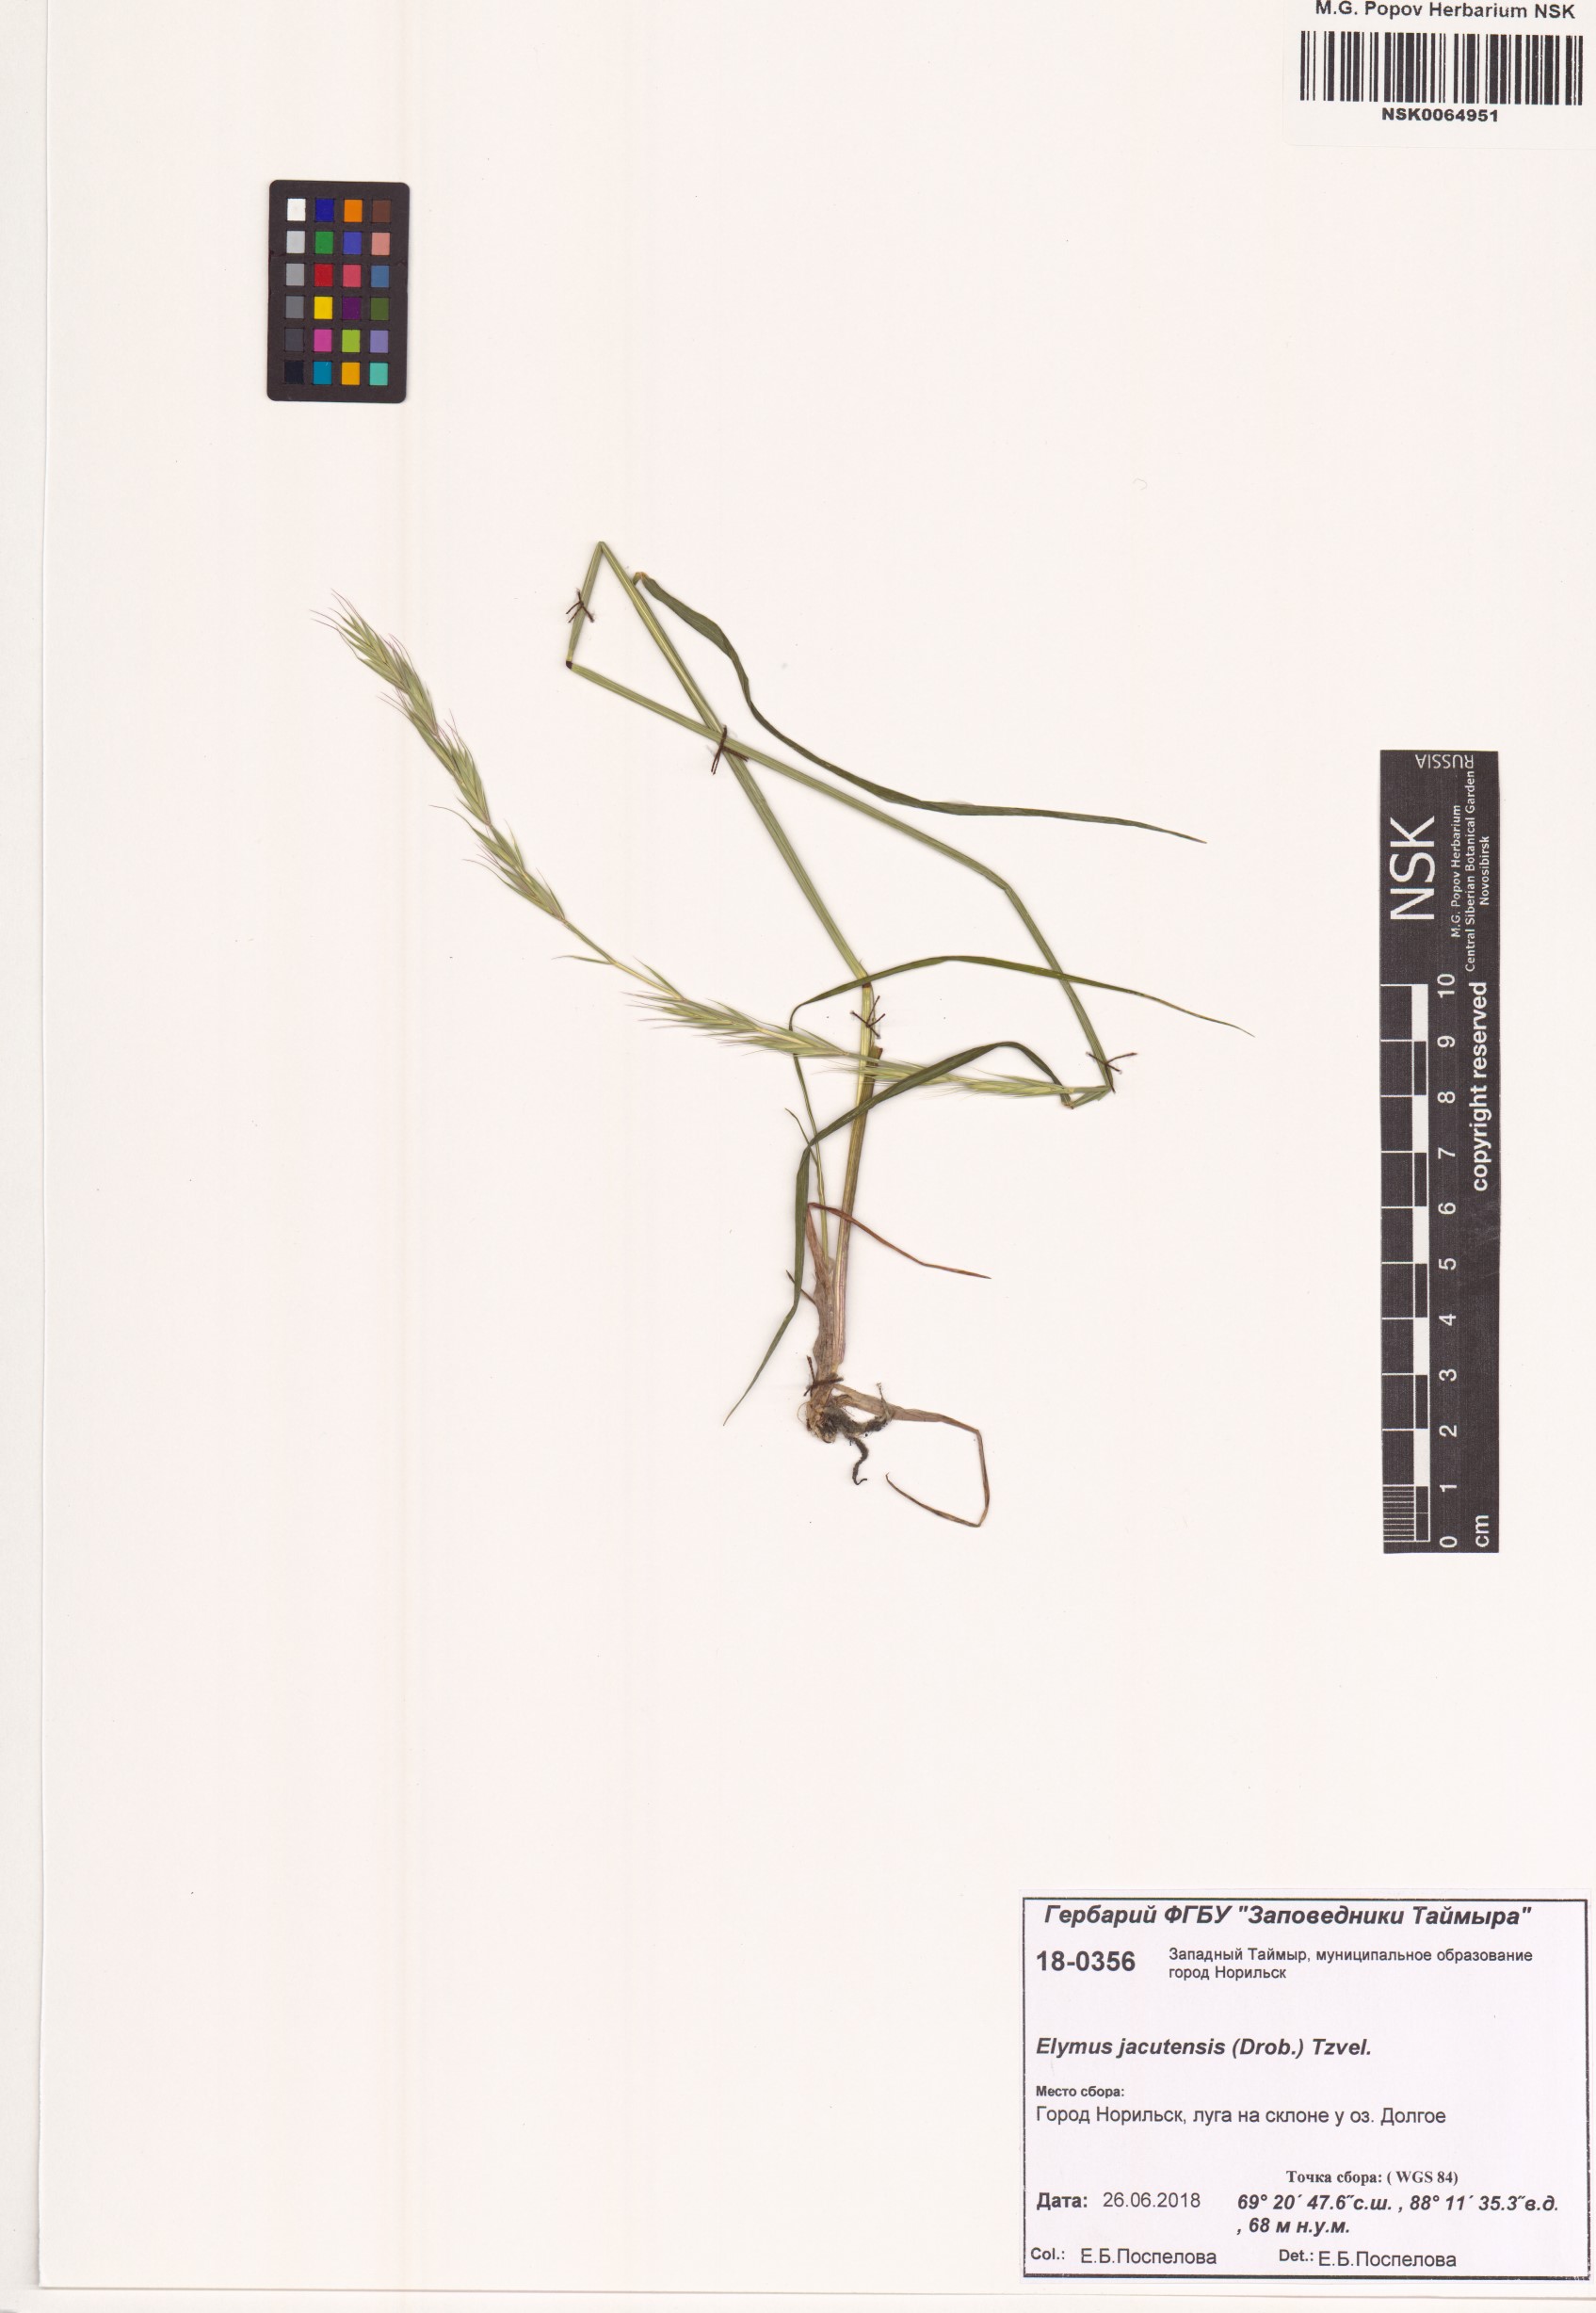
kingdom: Plantae
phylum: Tracheophyta
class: Liliopsida
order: Poales
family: Poaceae
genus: Elymus
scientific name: Elymus jacutensis
